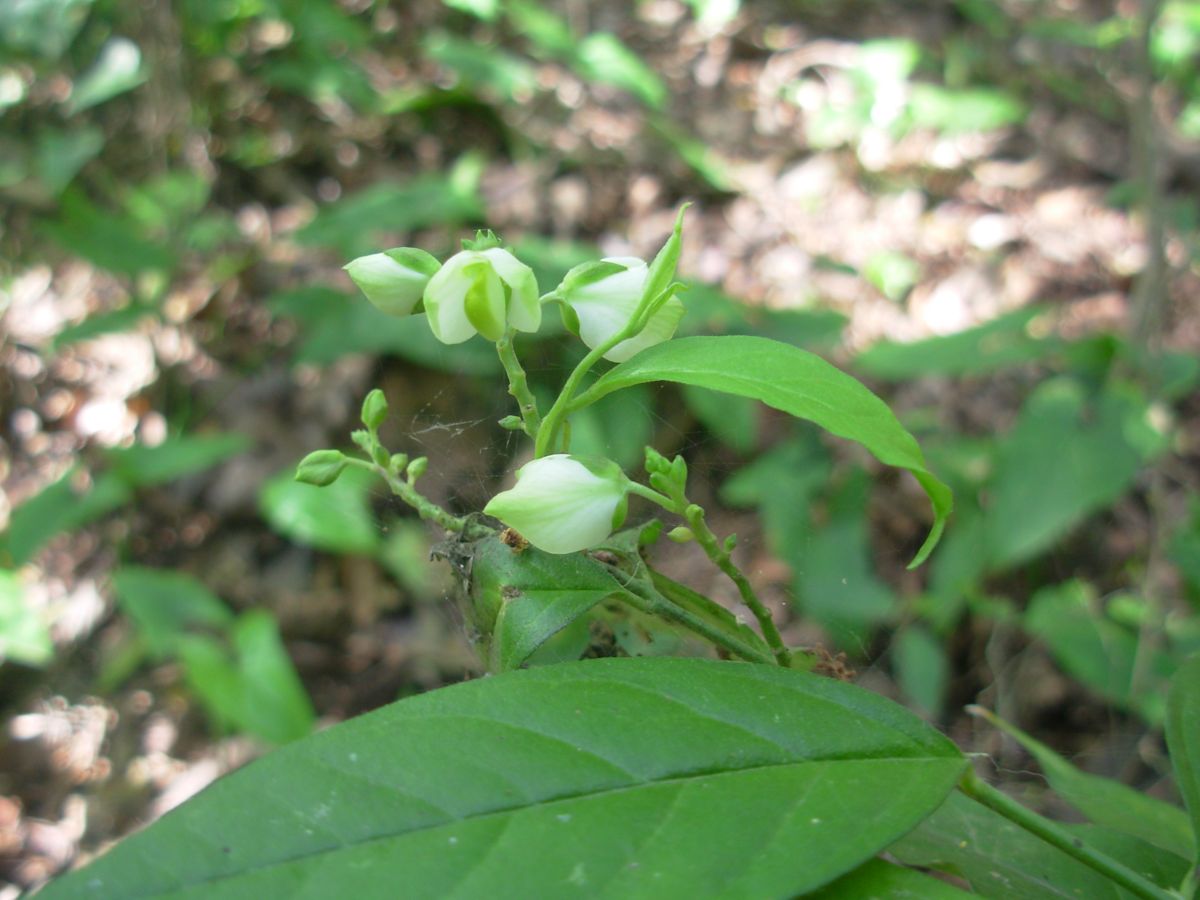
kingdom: Plantae
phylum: Tracheophyta
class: Magnoliopsida
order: Fabales
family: Polygalaceae
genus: Asemeia
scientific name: Asemeia hondurana
